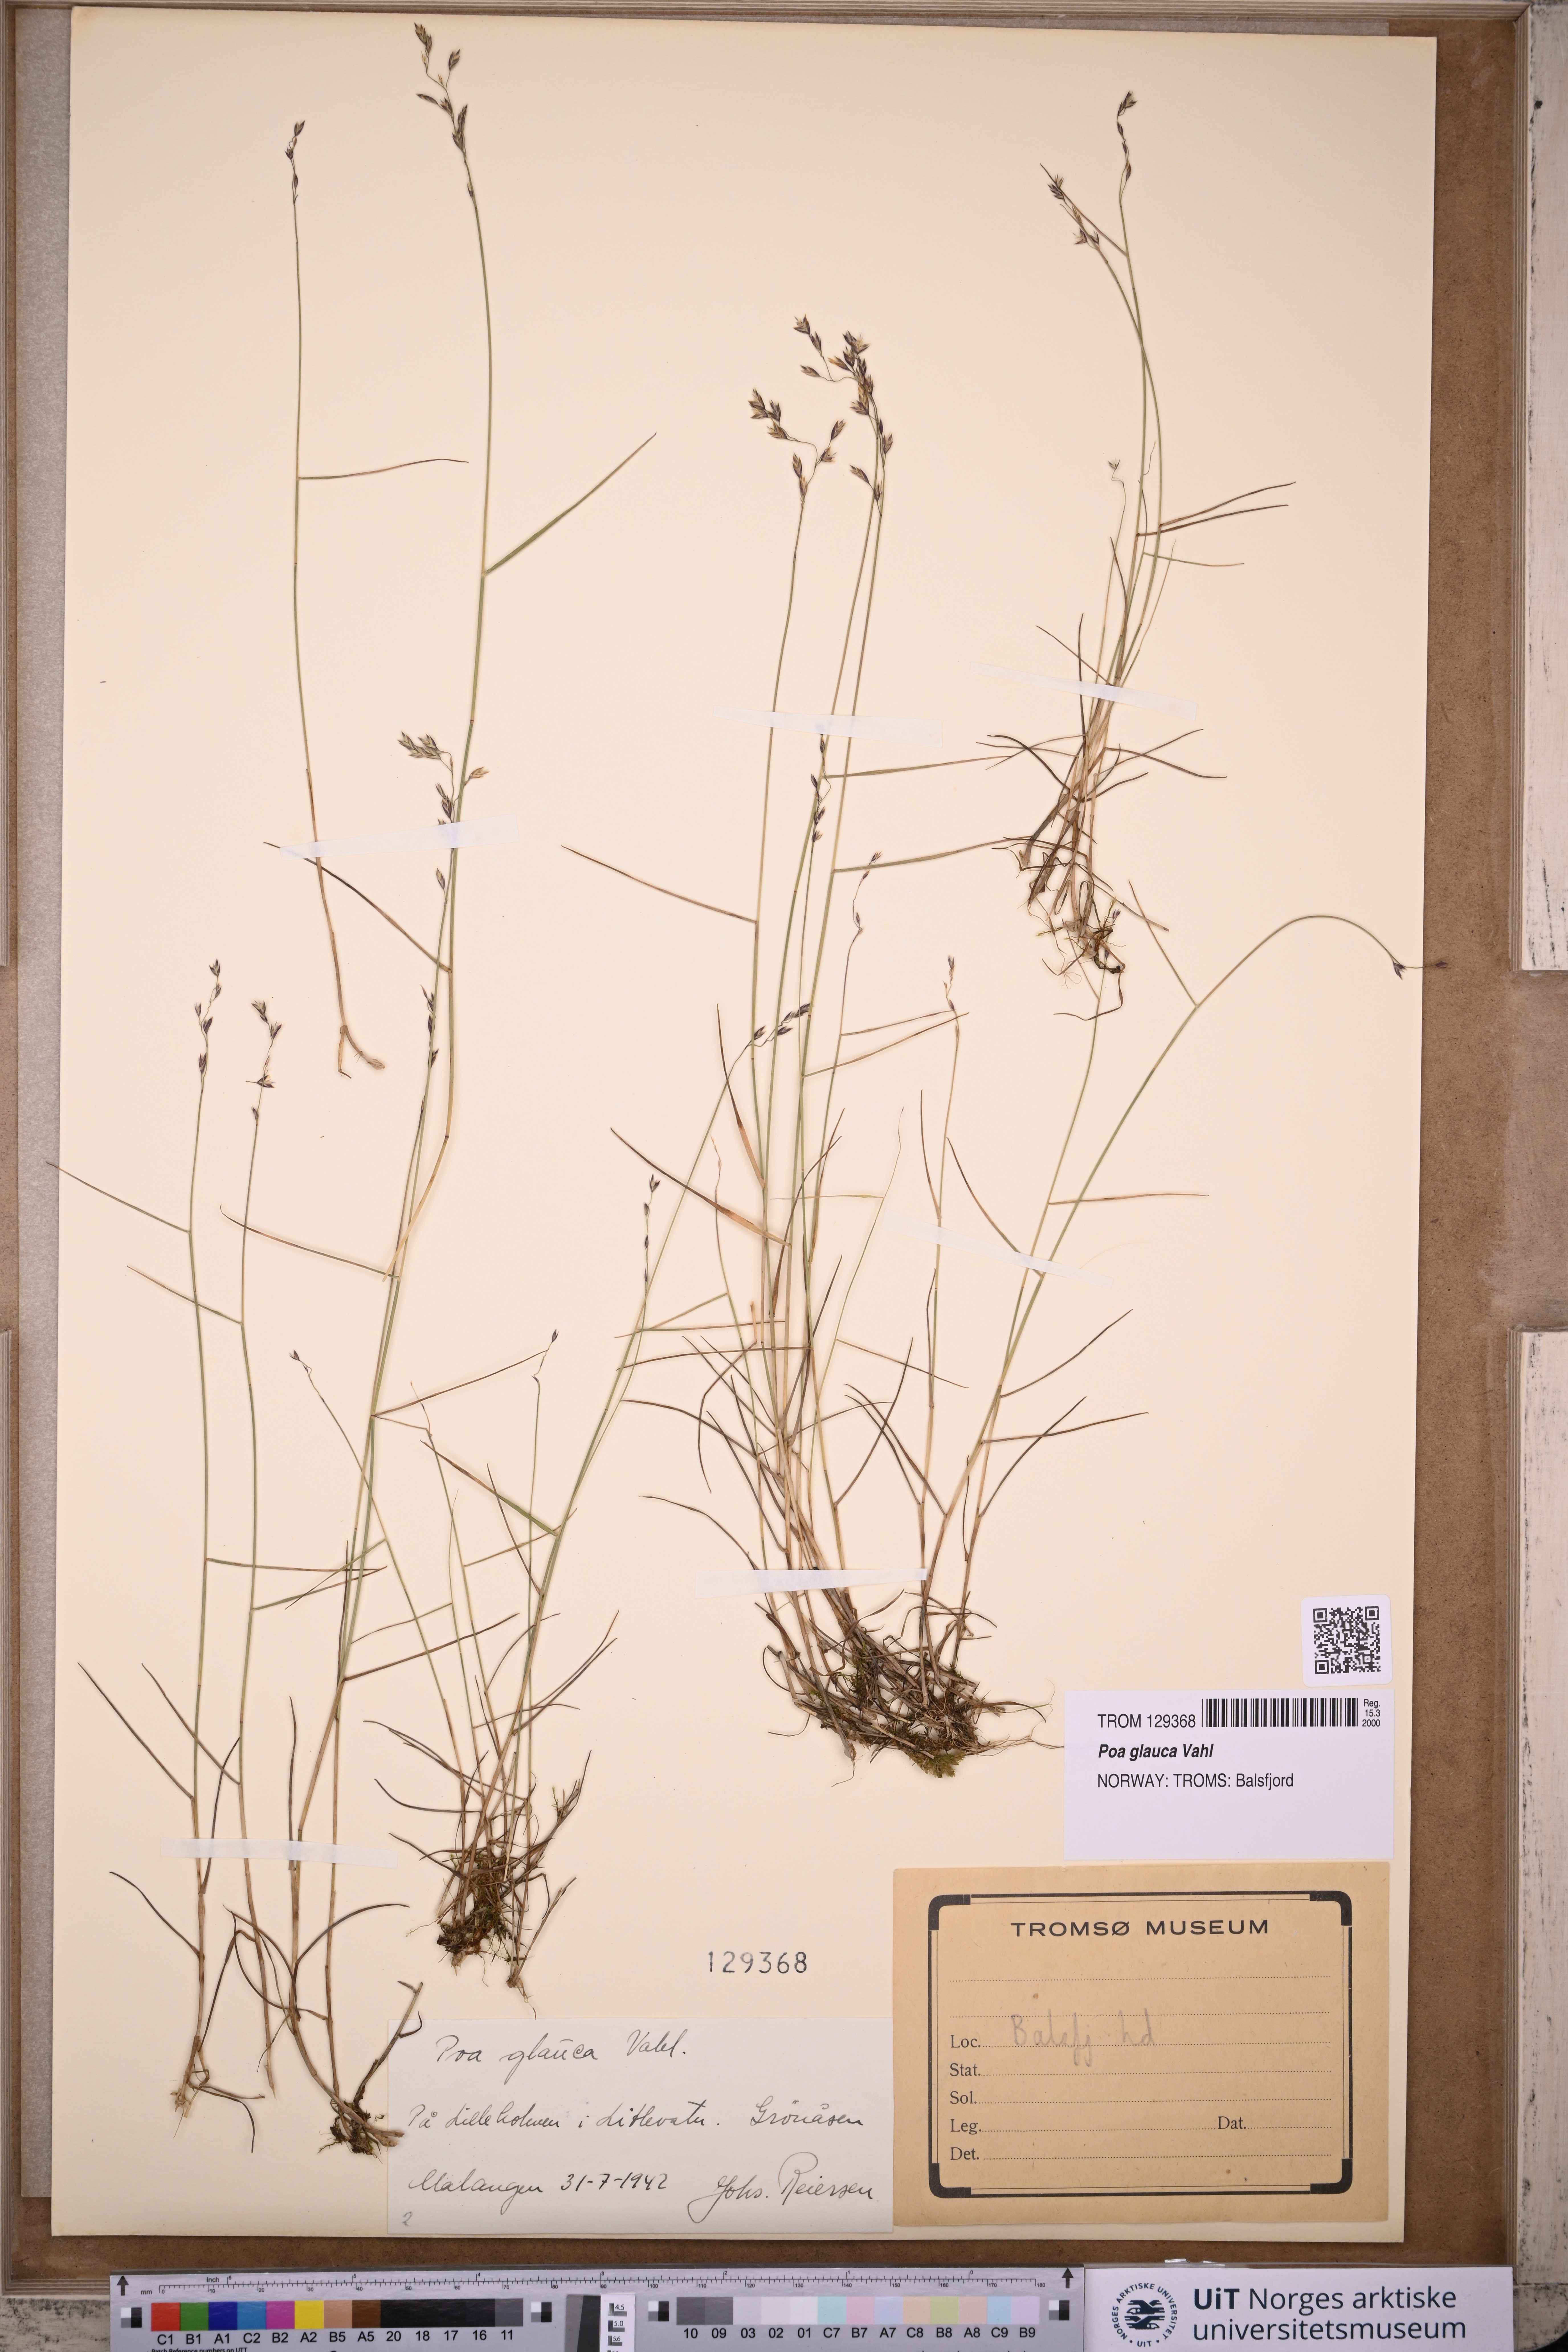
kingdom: Plantae
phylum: Tracheophyta
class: Liliopsida
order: Poales
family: Poaceae
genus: Poa
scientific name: Poa glauca
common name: Glaucous bluegrass
